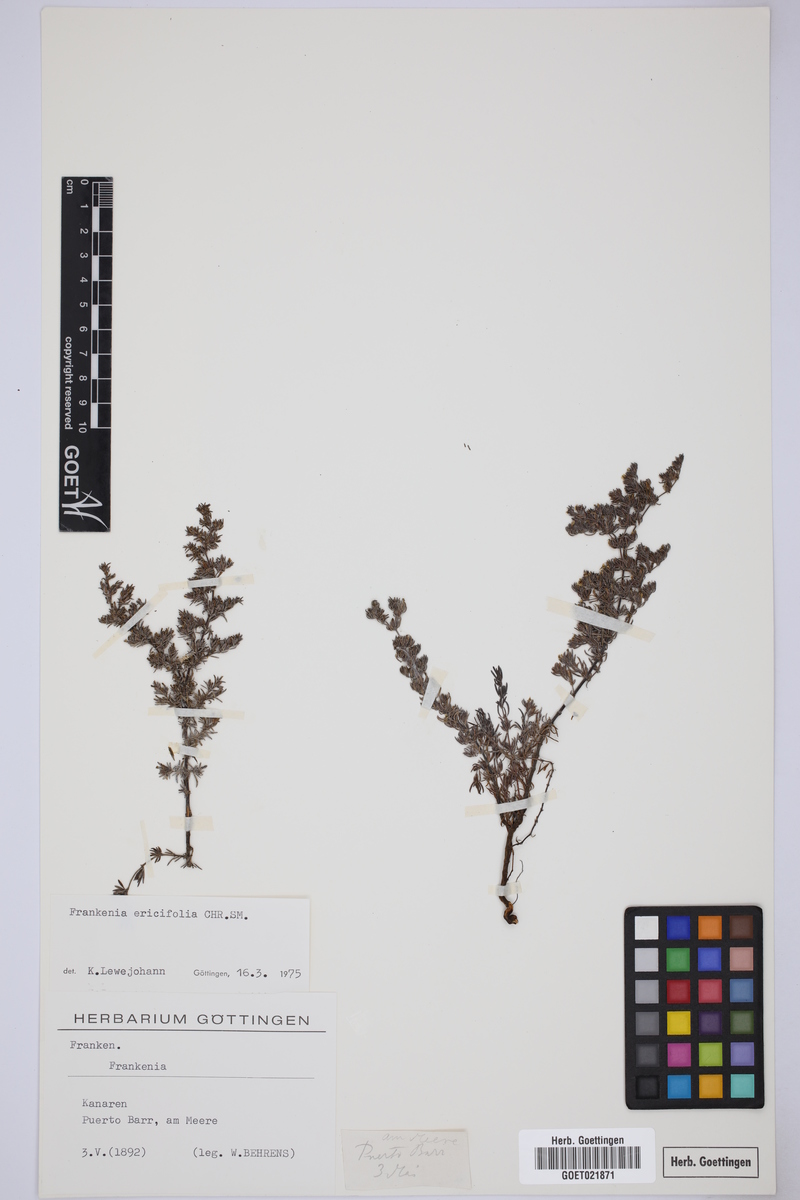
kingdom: Plantae
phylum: Tracheophyta
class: Magnoliopsida
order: Caryophyllales
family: Frankeniaceae
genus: Frankenia
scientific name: Frankenia ericifolia
